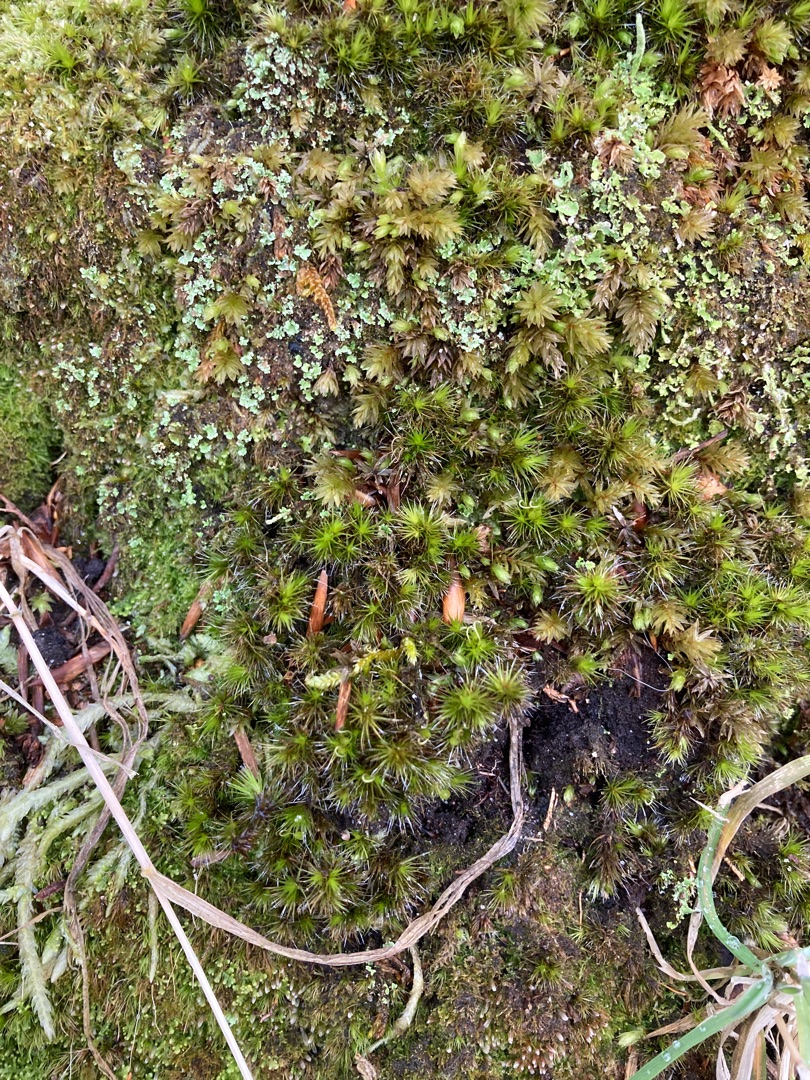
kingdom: Plantae
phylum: Bryophyta
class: Bryopsida
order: Dicranales
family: Leucobryaceae
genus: Campylopus
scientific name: Campylopus introflexus
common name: Stjerne-bredribbe
